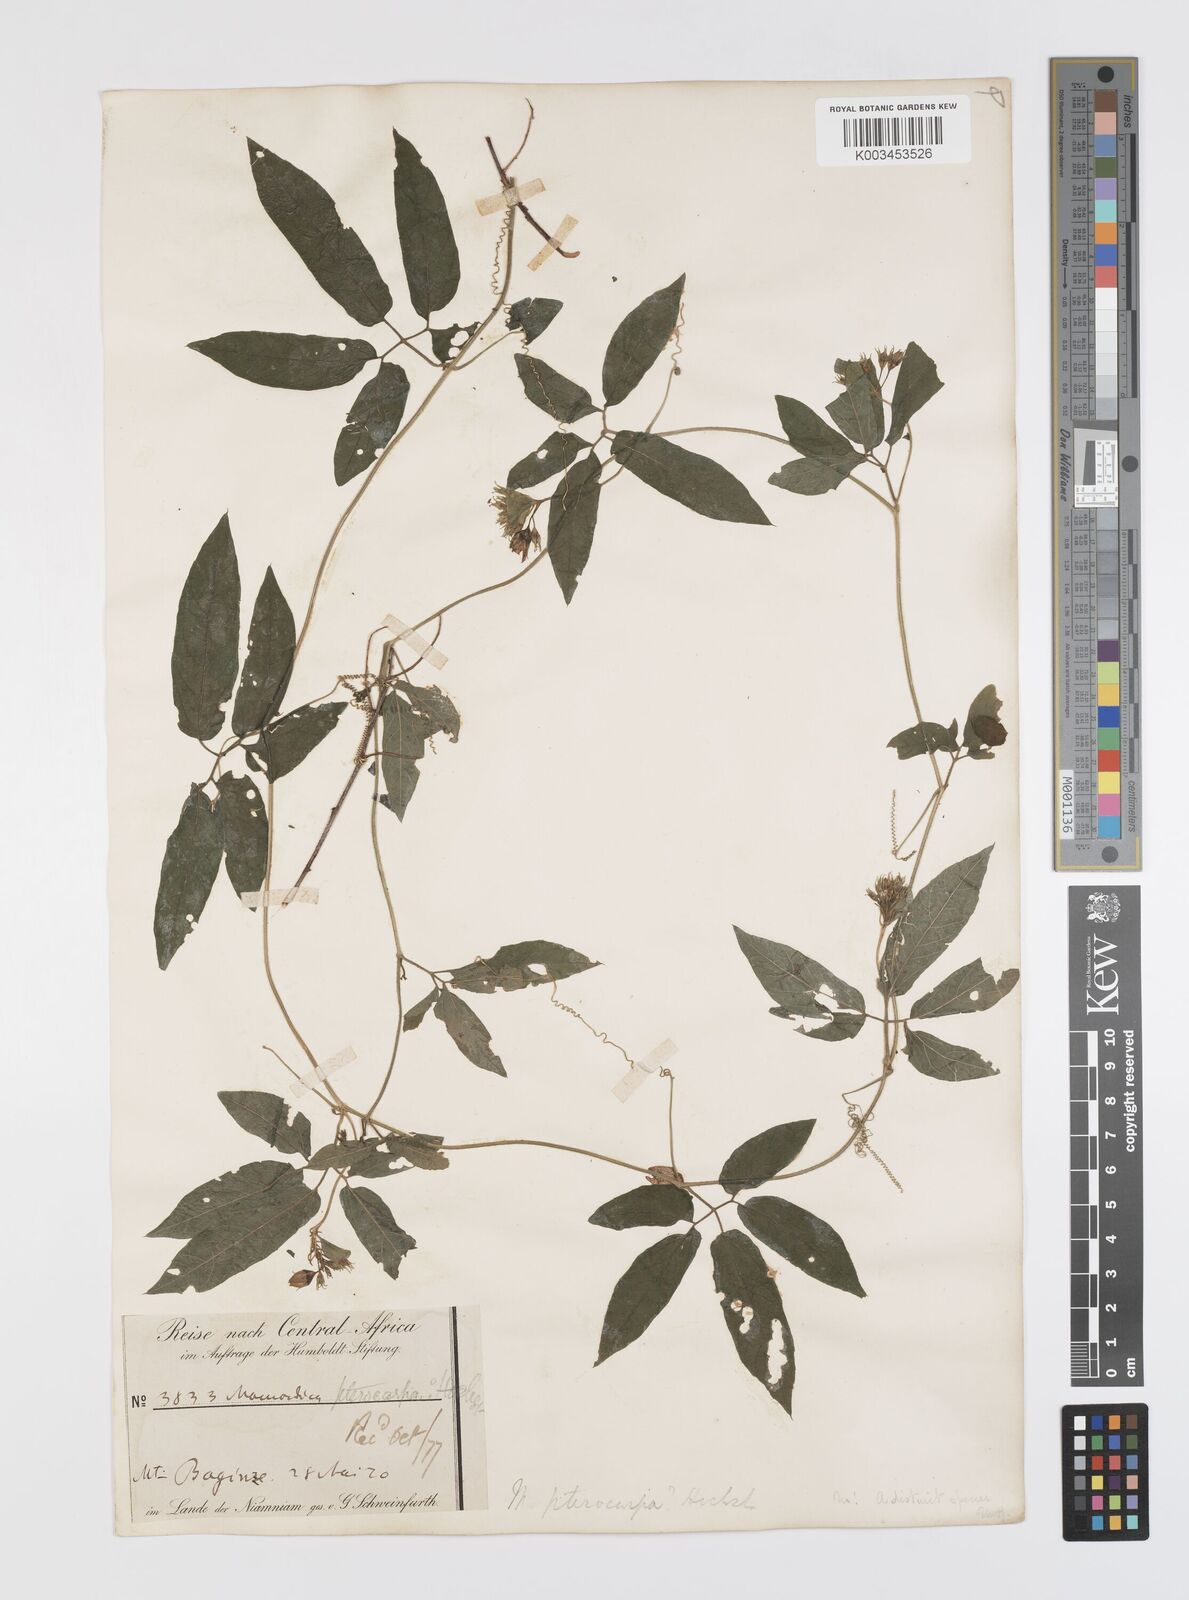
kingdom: Plantae
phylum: Tracheophyta
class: Magnoliopsida
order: Cucurbitales
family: Cucurbitaceae
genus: Momordica
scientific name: Momordica pterocarpa
